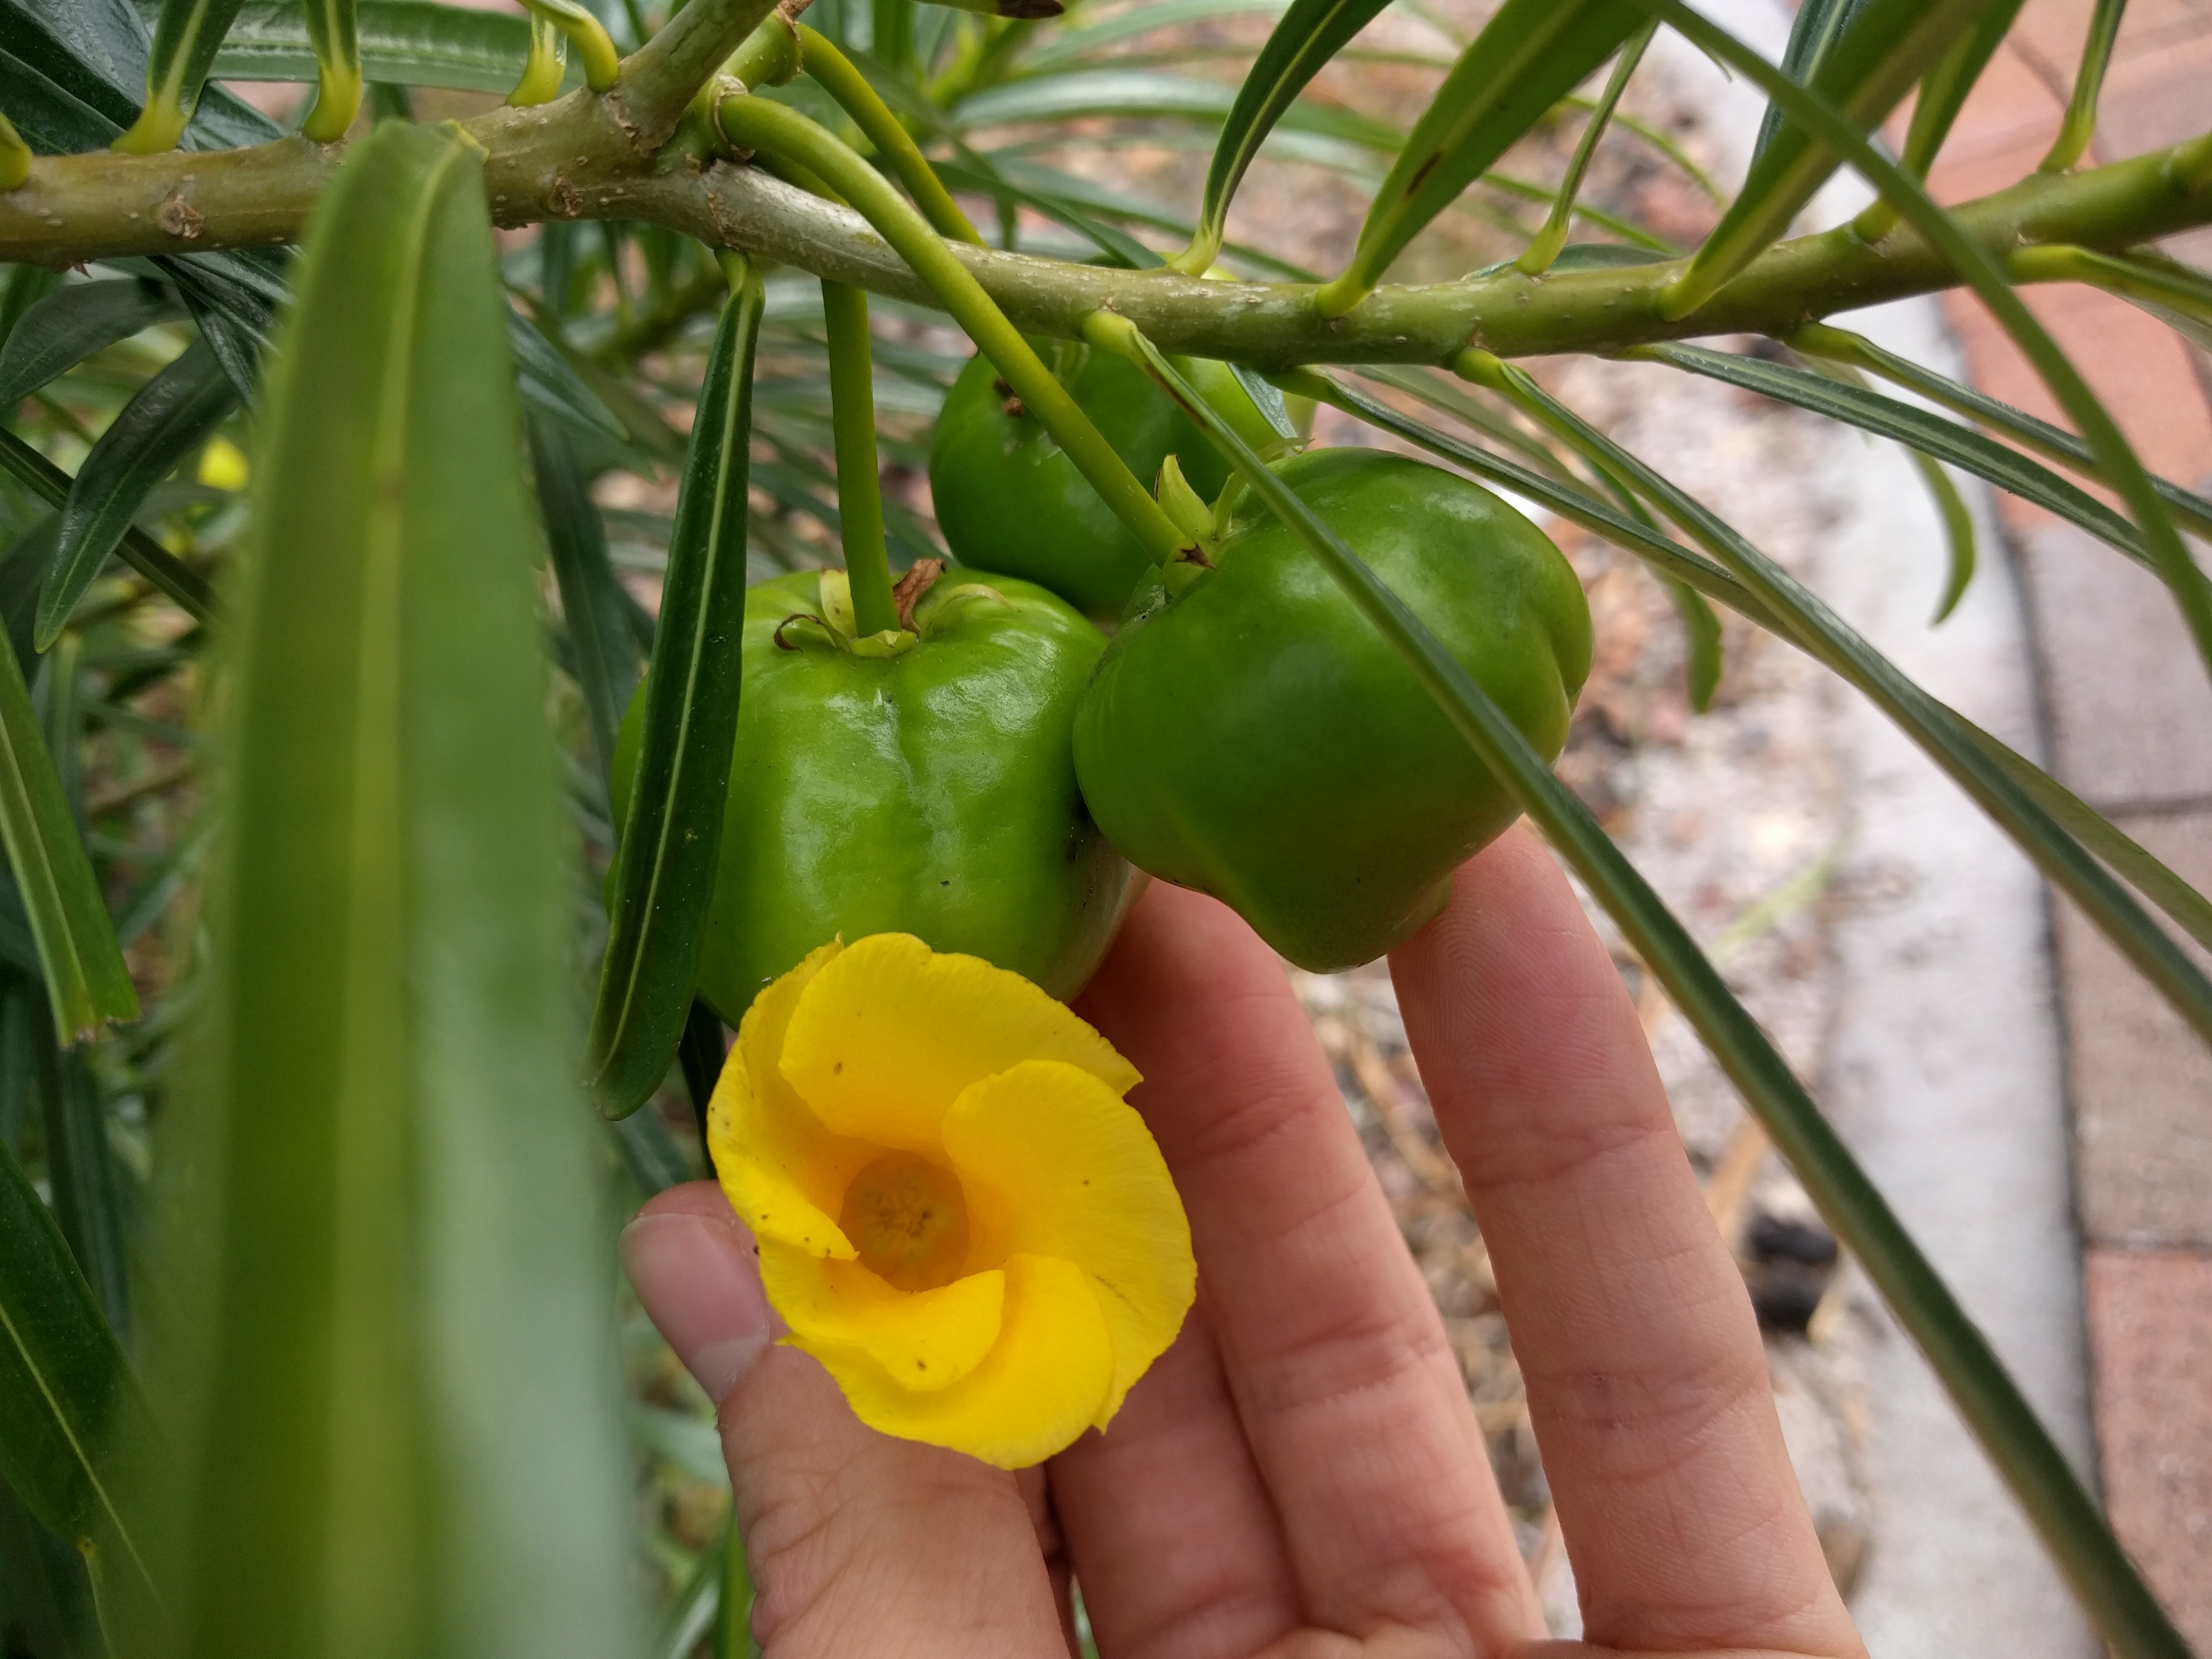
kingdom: Plantae
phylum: Tracheophyta
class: Magnoliopsida
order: Gentianales
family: Apocynaceae
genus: Cascabela
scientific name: Cascabela thevetia
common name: Yellow oleander
